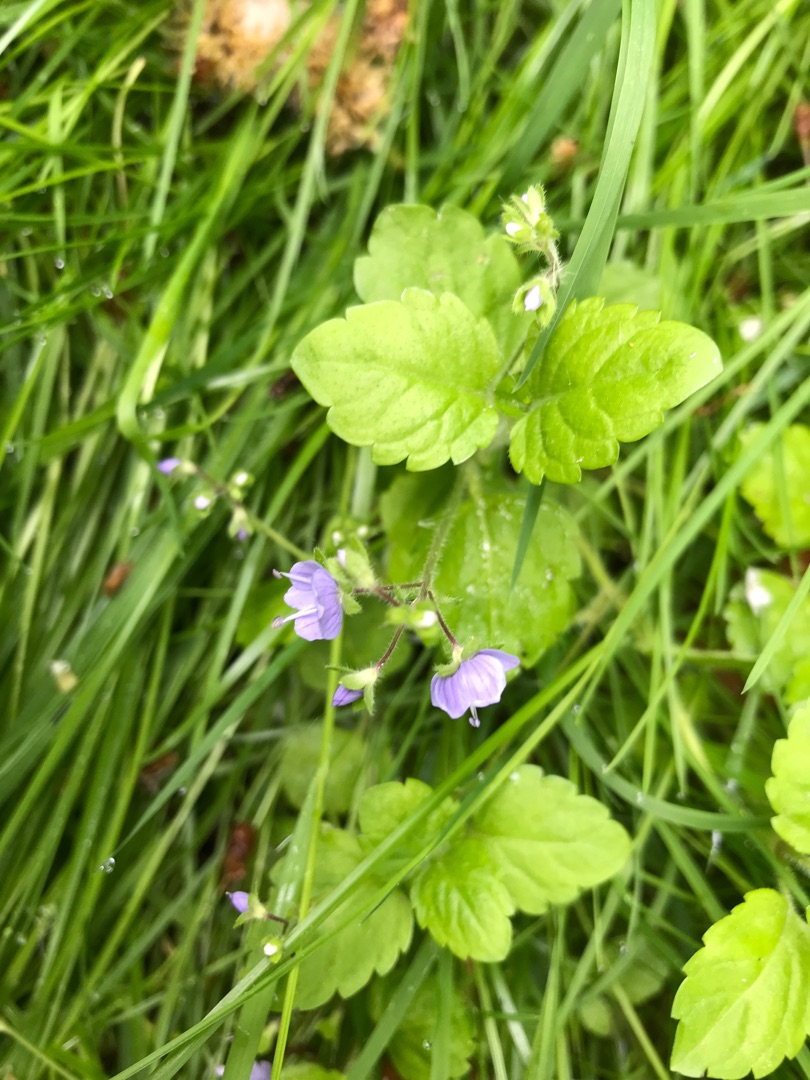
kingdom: Plantae
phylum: Tracheophyta
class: Magnoliopsida
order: Lamiales
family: Plantaginaceae
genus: Veronica
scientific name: Veronica montana
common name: Bjerg-ærenpris
